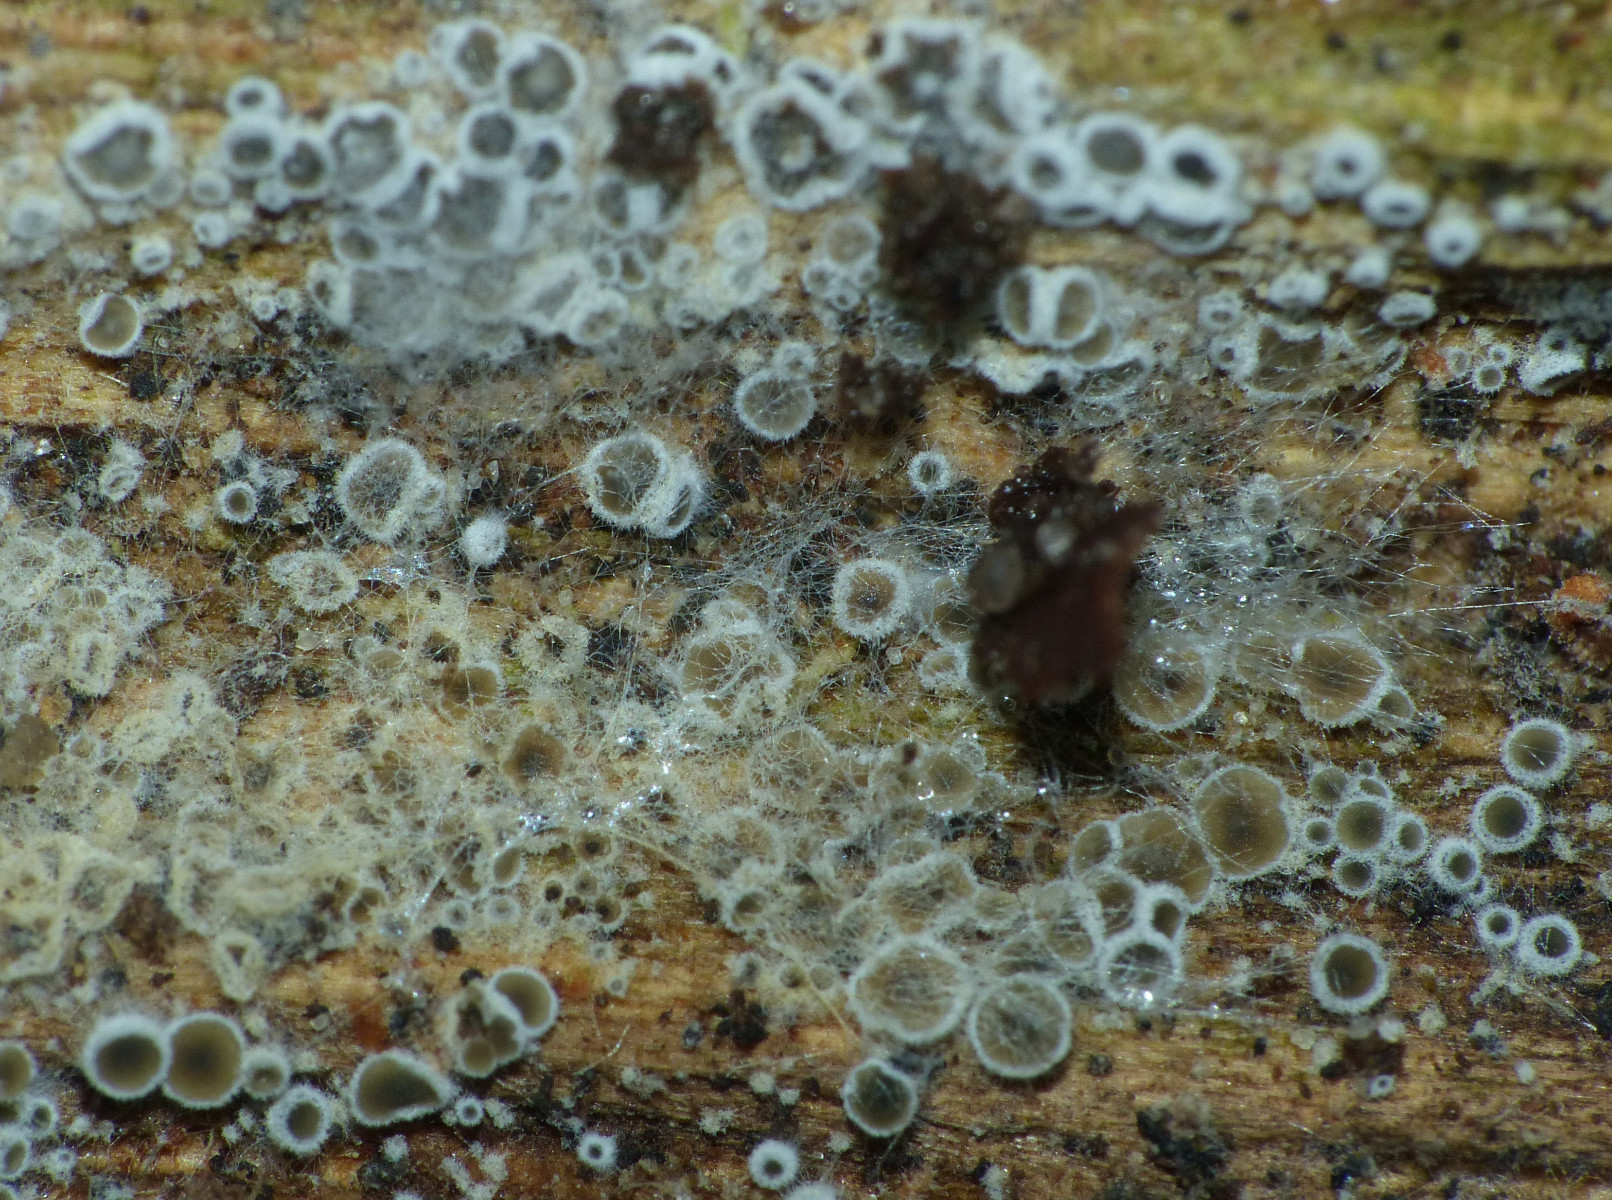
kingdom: Fungi
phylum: Ascomycota
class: Leotiomycetes
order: Helotiales
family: Arachnopezizaceae
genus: Eriopezia
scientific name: Eriopezia caesia
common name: ege-spindskive
